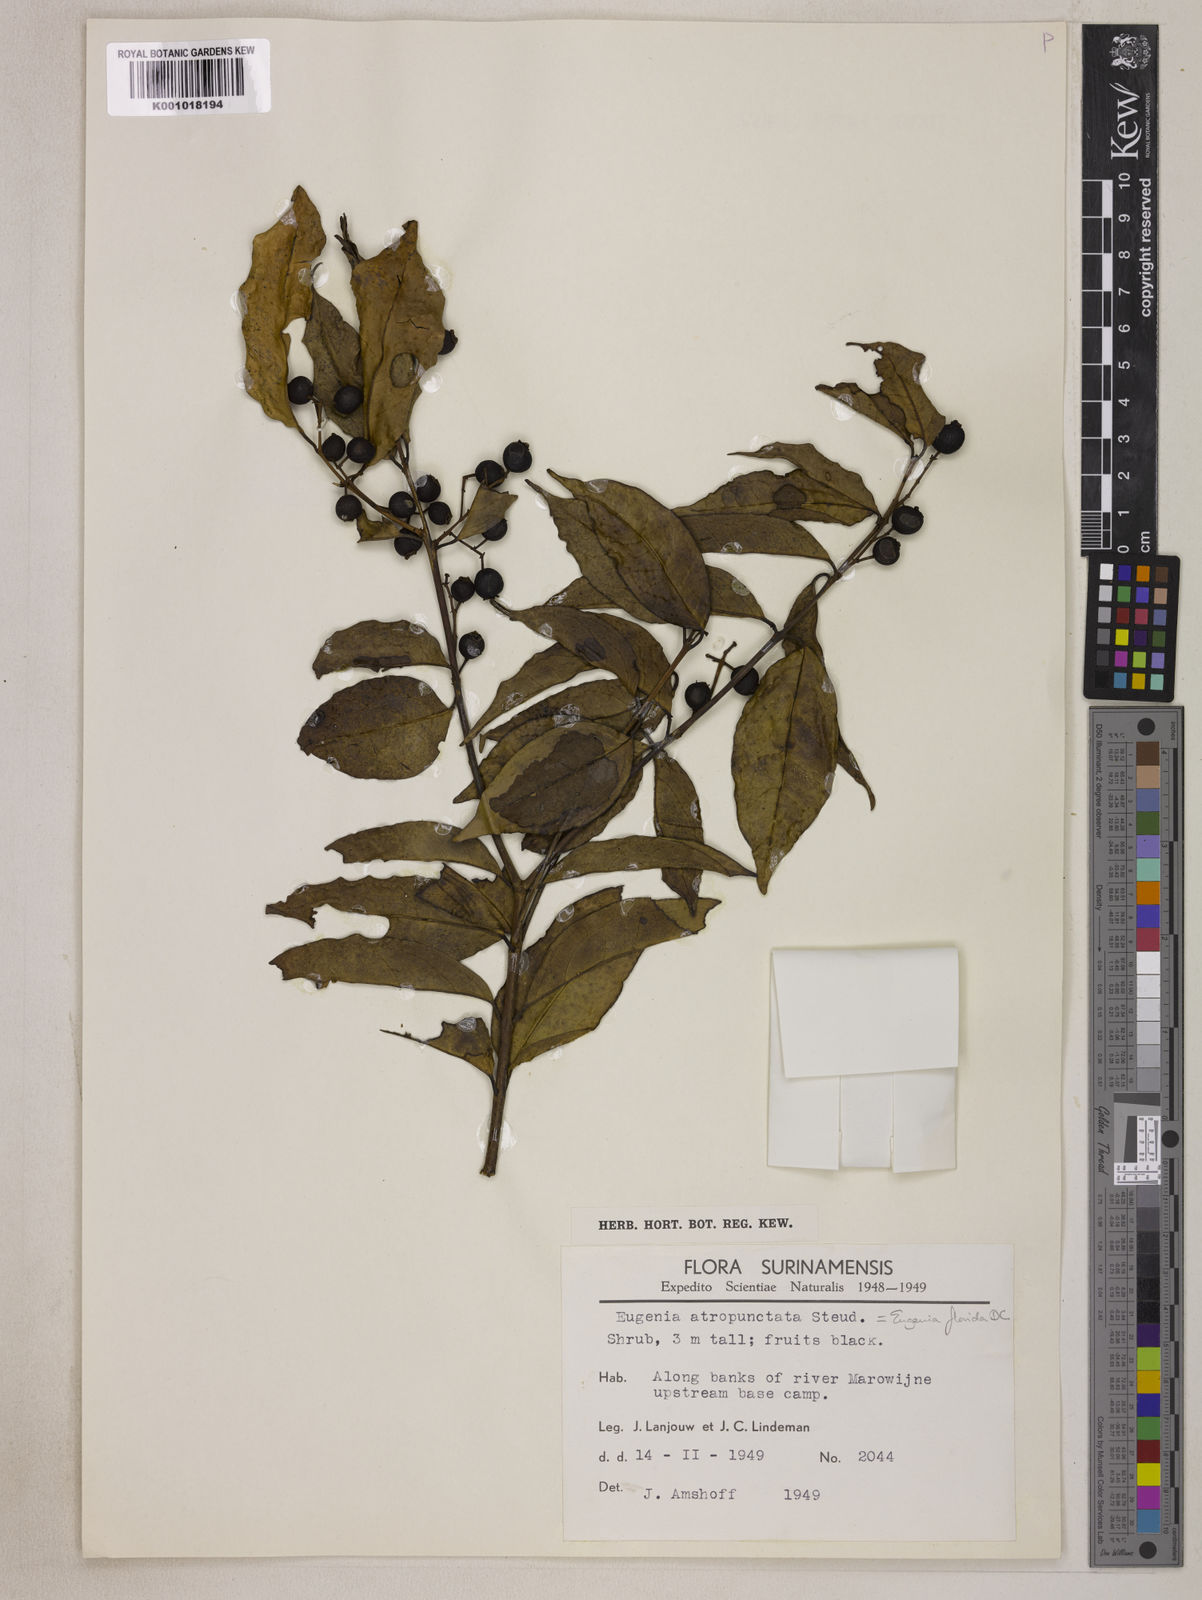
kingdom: Plantae
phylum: Tracheophyta
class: Magnoliopsida
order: Myrtales
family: Myrtaceae
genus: Eugenia
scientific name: Eugenia florida
